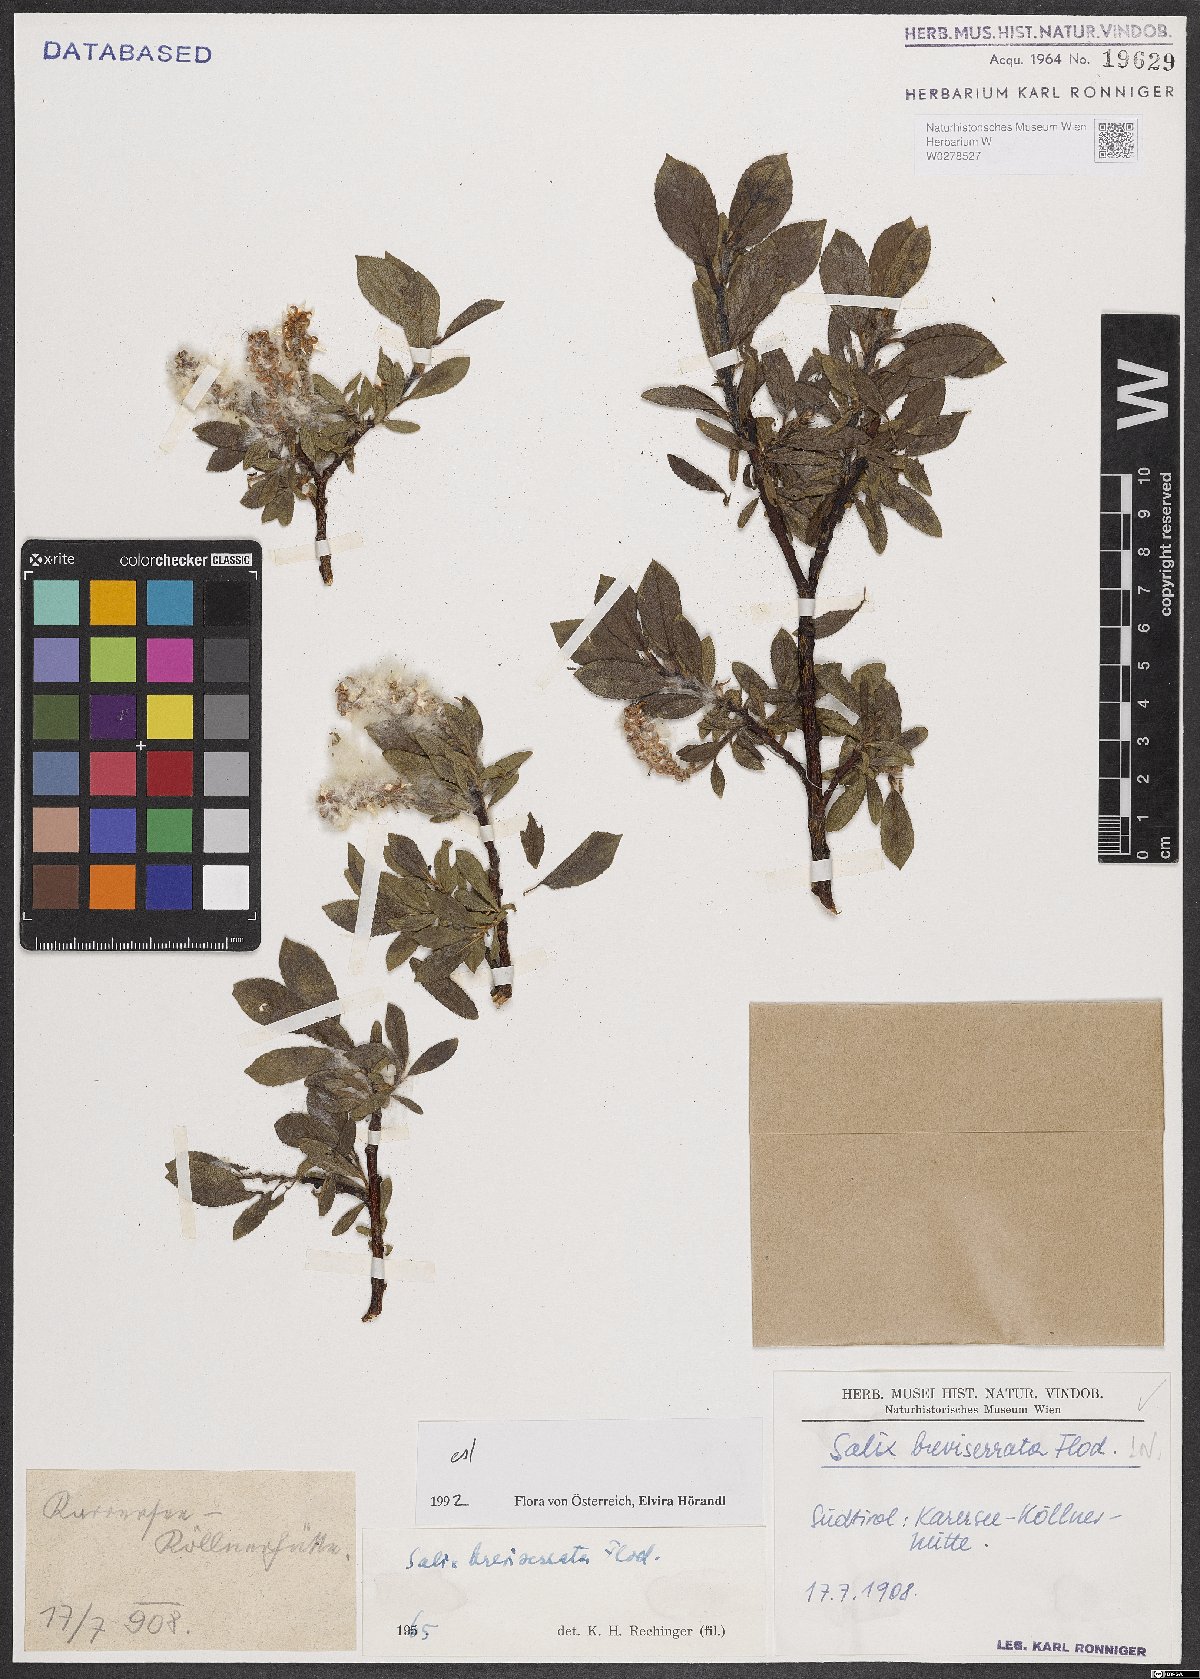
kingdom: Plantae
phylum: Tracheophyta
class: Magnoliopsida
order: Malpighiales
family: Salicaceae
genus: Salix
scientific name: Salix breviserrata
